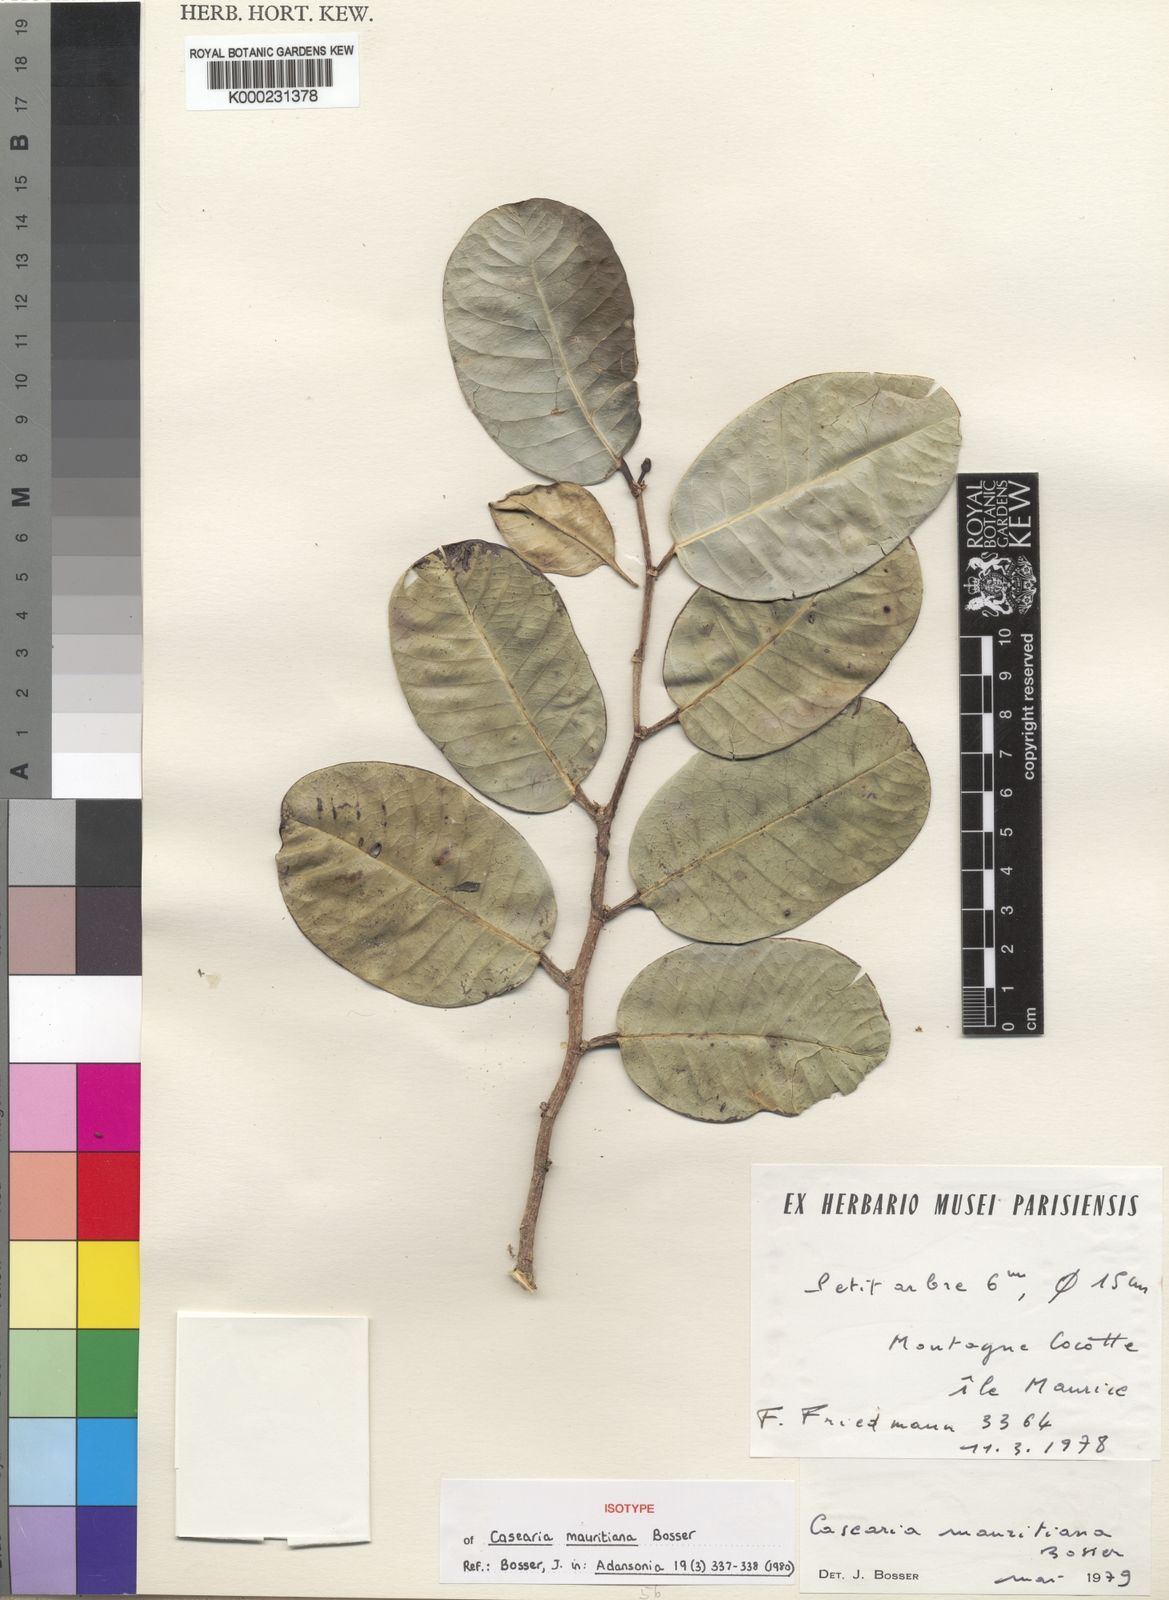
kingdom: Plantae
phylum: Tracheophyta
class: Magnoliopsida
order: Malpighiales
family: Salicaceae
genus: Casearia
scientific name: Casearia mauritiana
